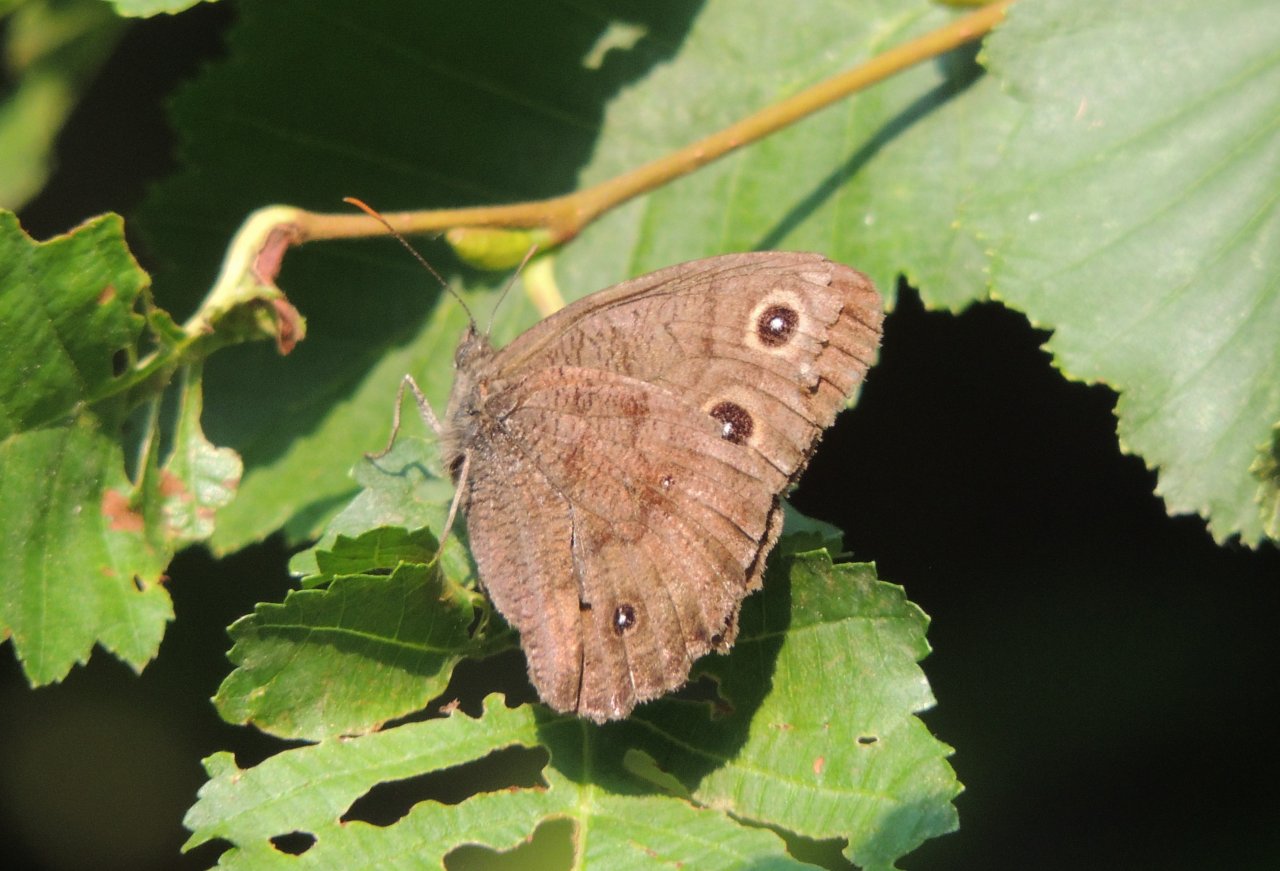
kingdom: Animalia
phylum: Arthropoda
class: Insecta
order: Lepidoptera
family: Nymphalidae
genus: Cercyonis
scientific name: Cercyonis pegala
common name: Common Wood-Nymph
